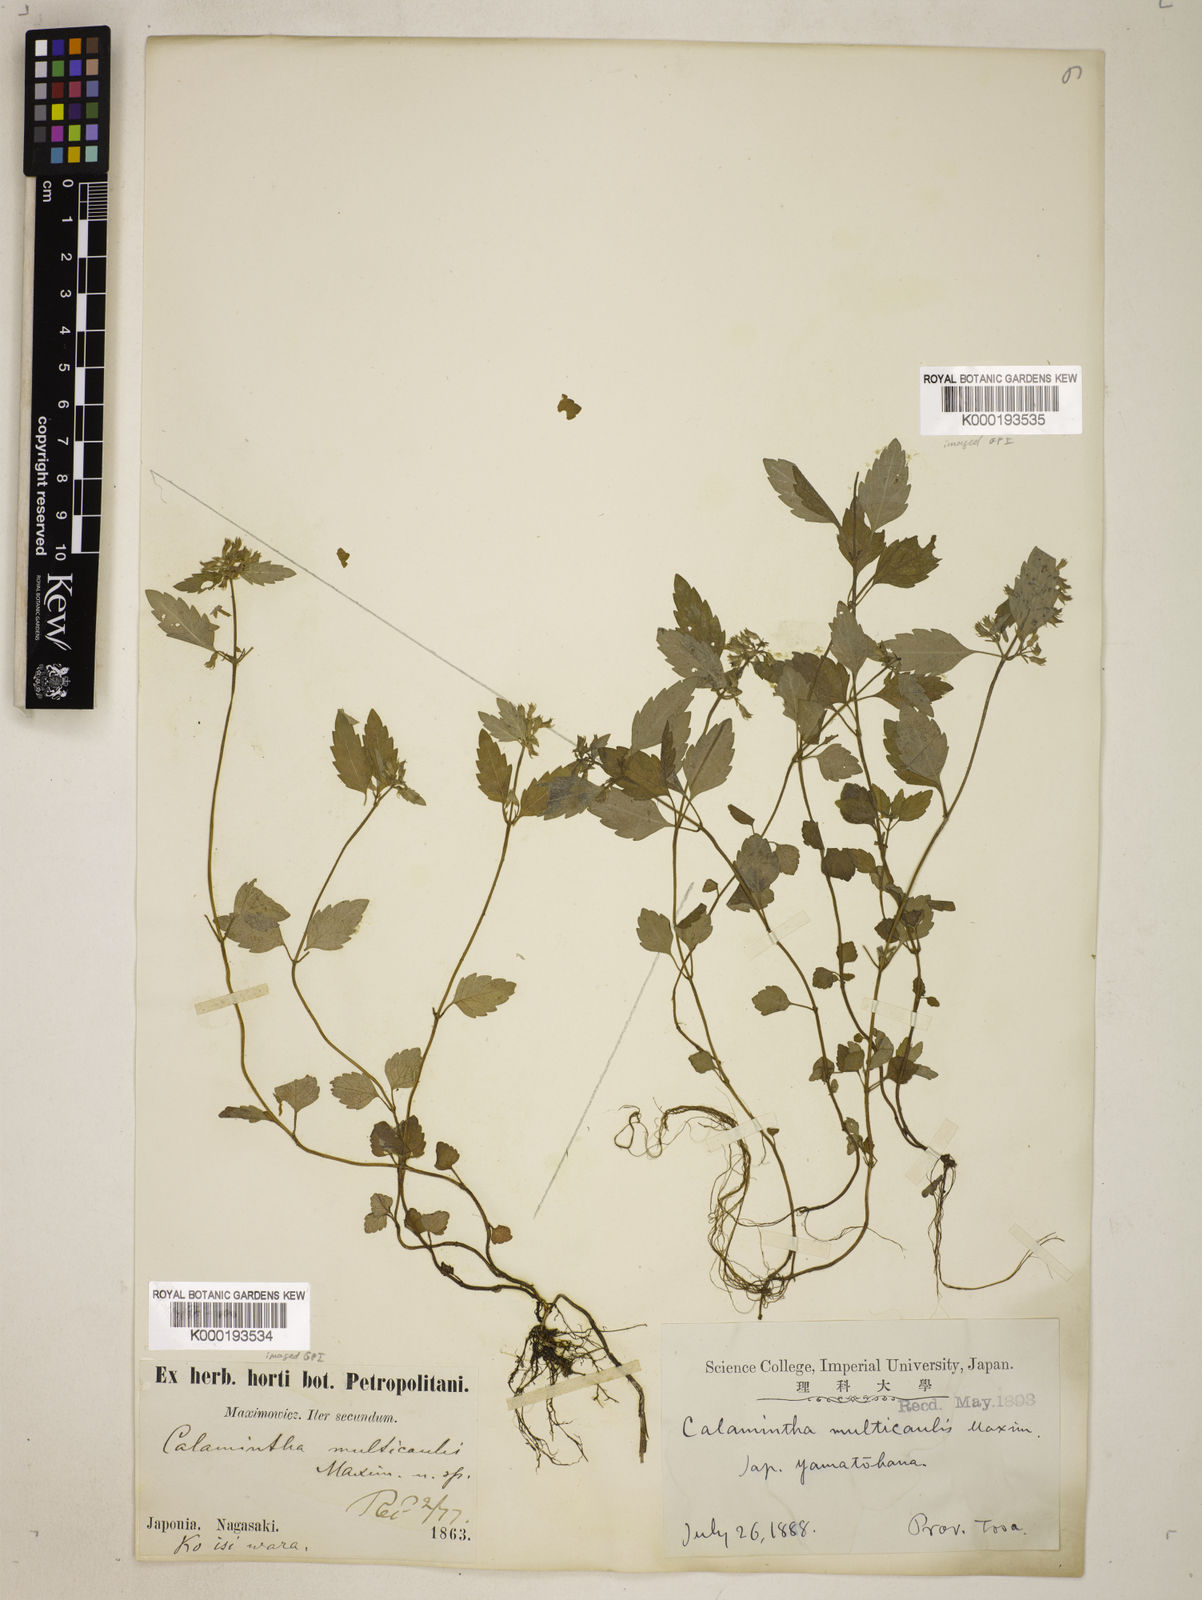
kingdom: Plantae
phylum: Tracheophyta
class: Magnoliopsida
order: Lamiales
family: Lamiaceae
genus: Clinopodium
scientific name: Clinopodium multicaule
